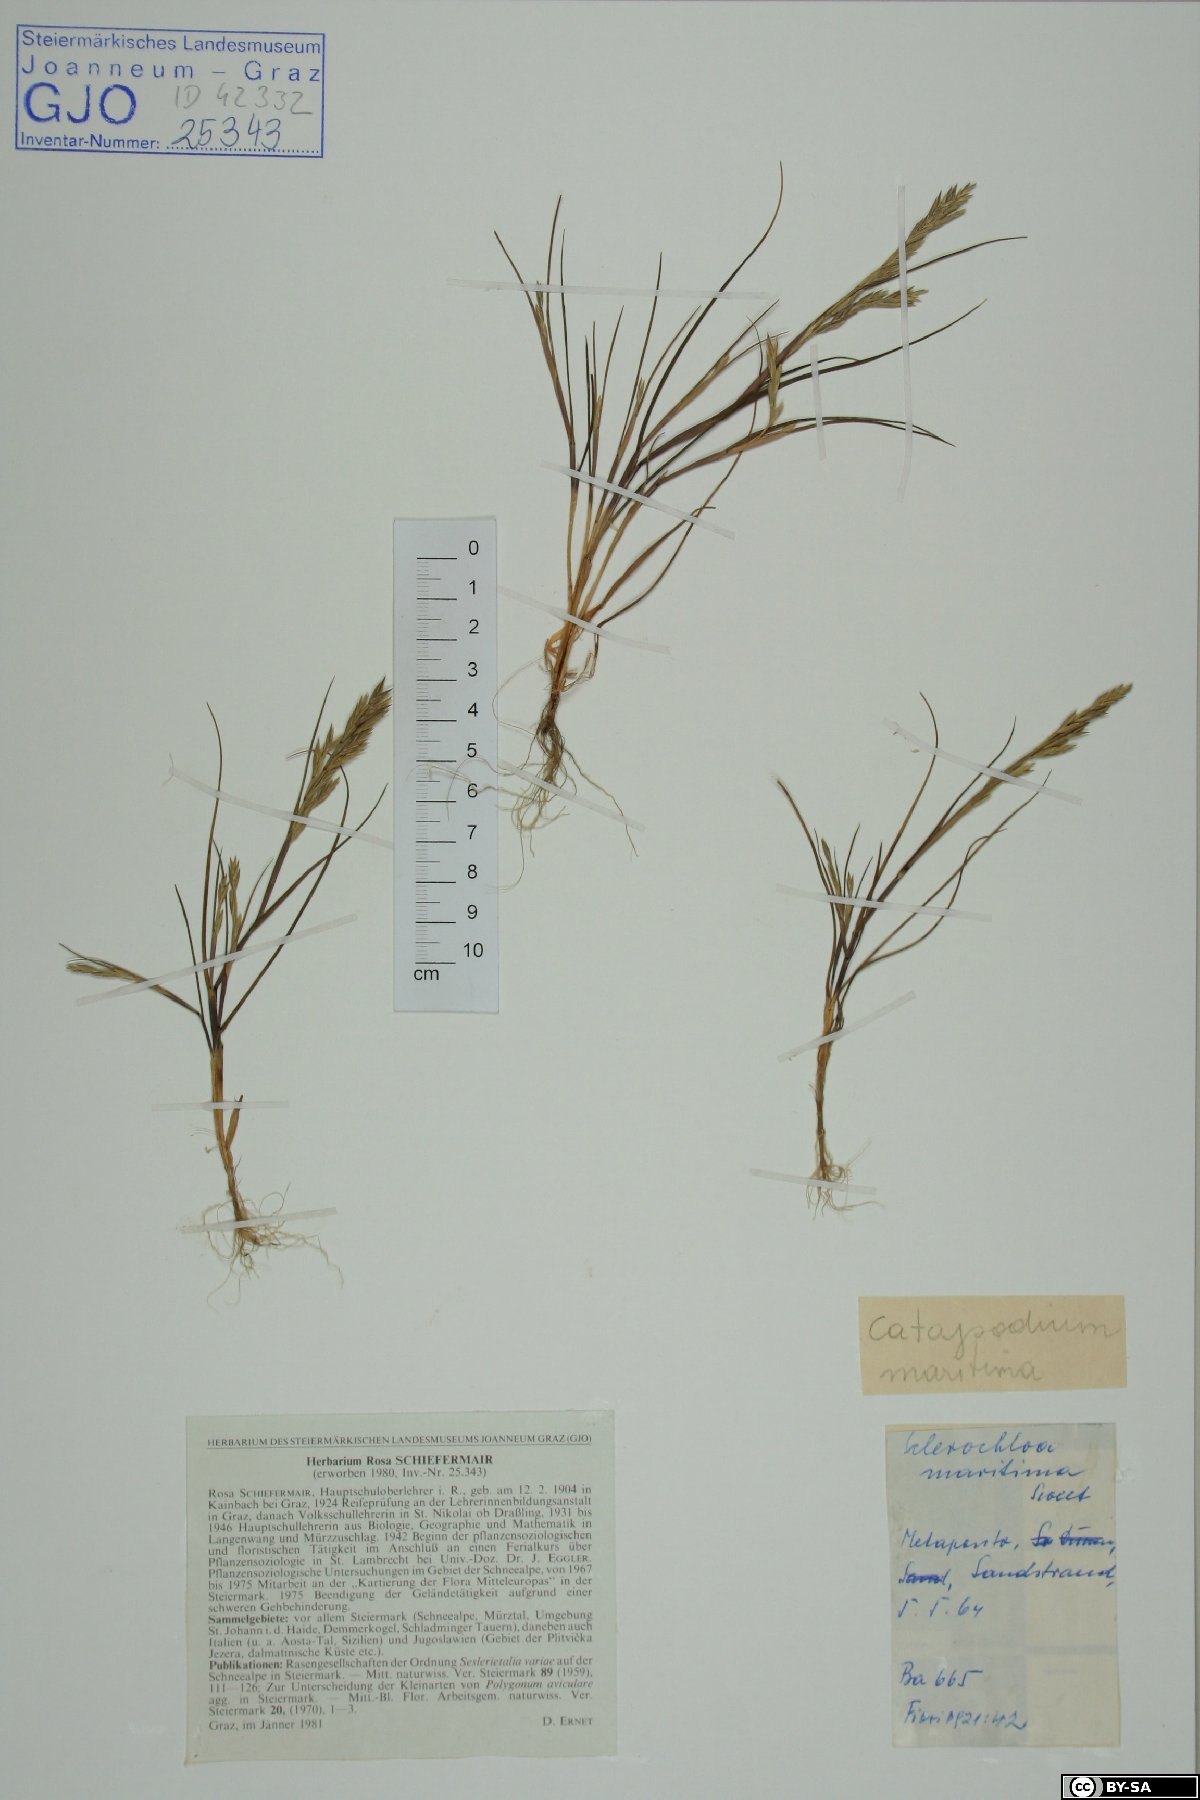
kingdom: Plantae
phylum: Tracheophyta
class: Liliopsida
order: Poales
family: Poaceae
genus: Cutandia
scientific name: Cutandia maritima
